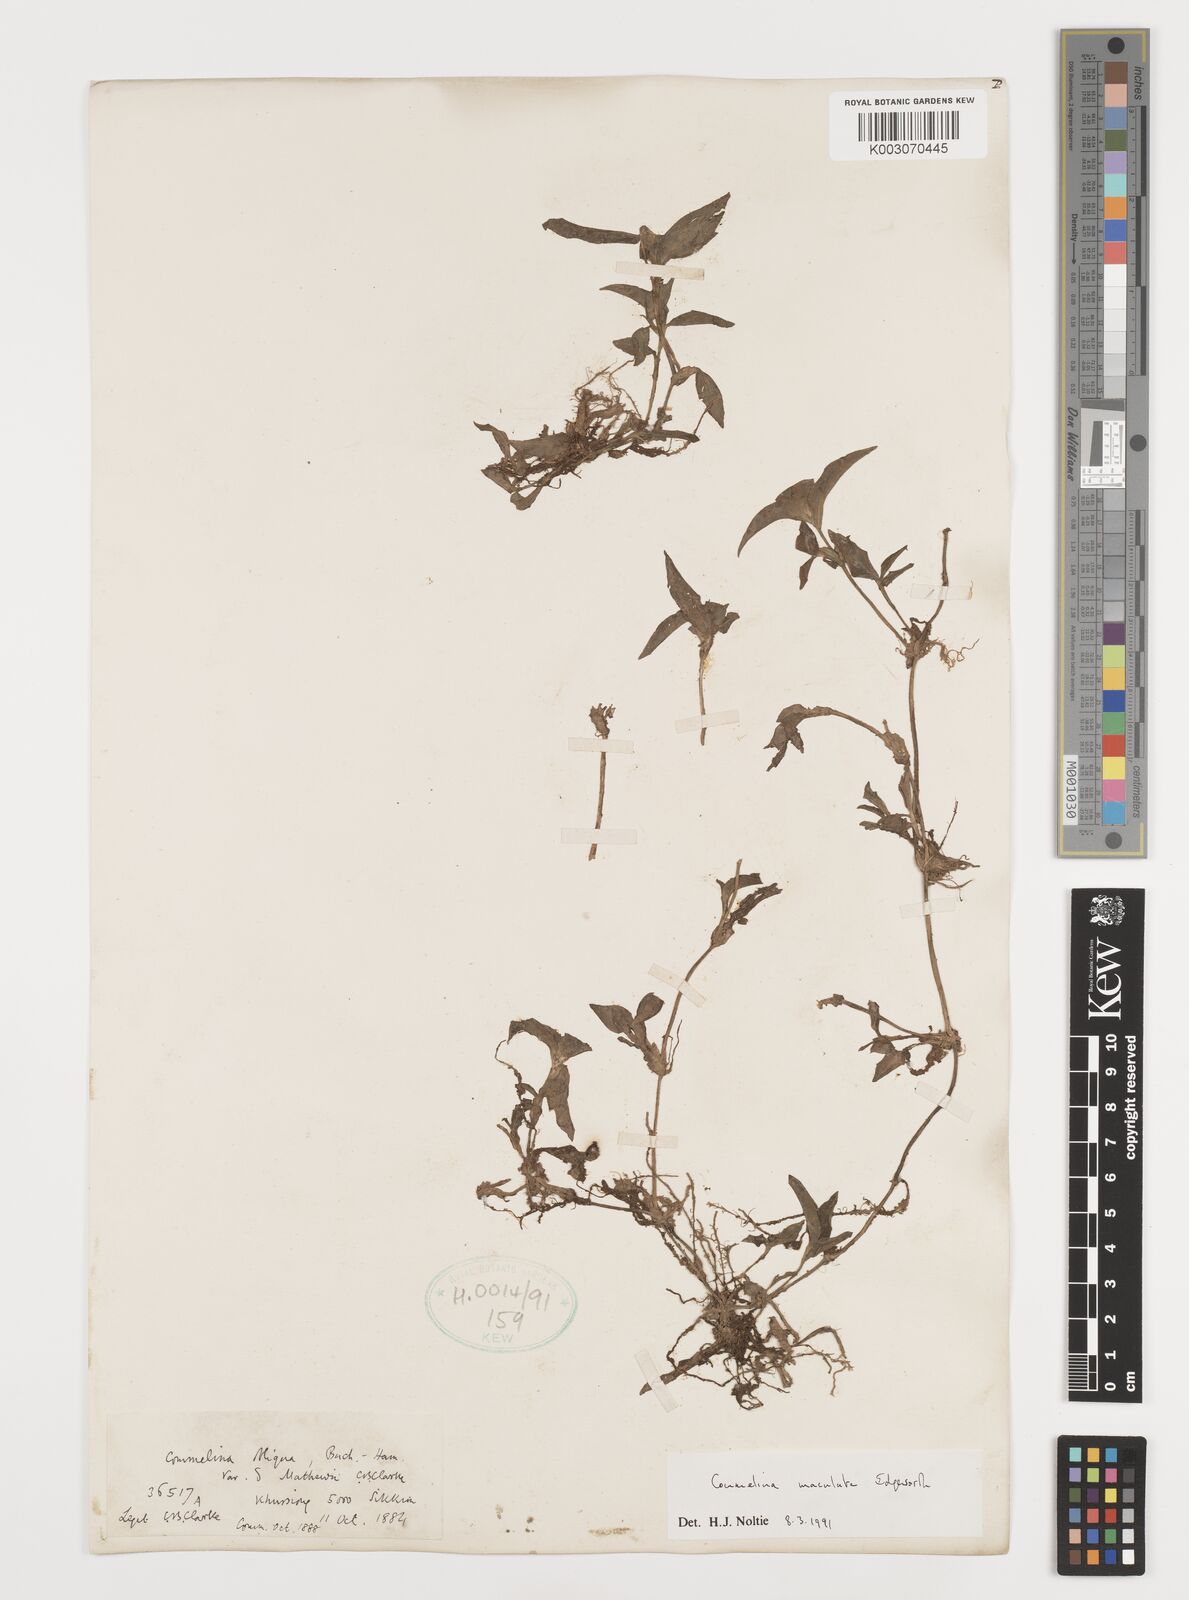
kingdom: Plantae
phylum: Tracheophyta
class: Liliopsida
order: Commelinales
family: Commelinaceae
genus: Commelina
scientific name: Commelina maculata
